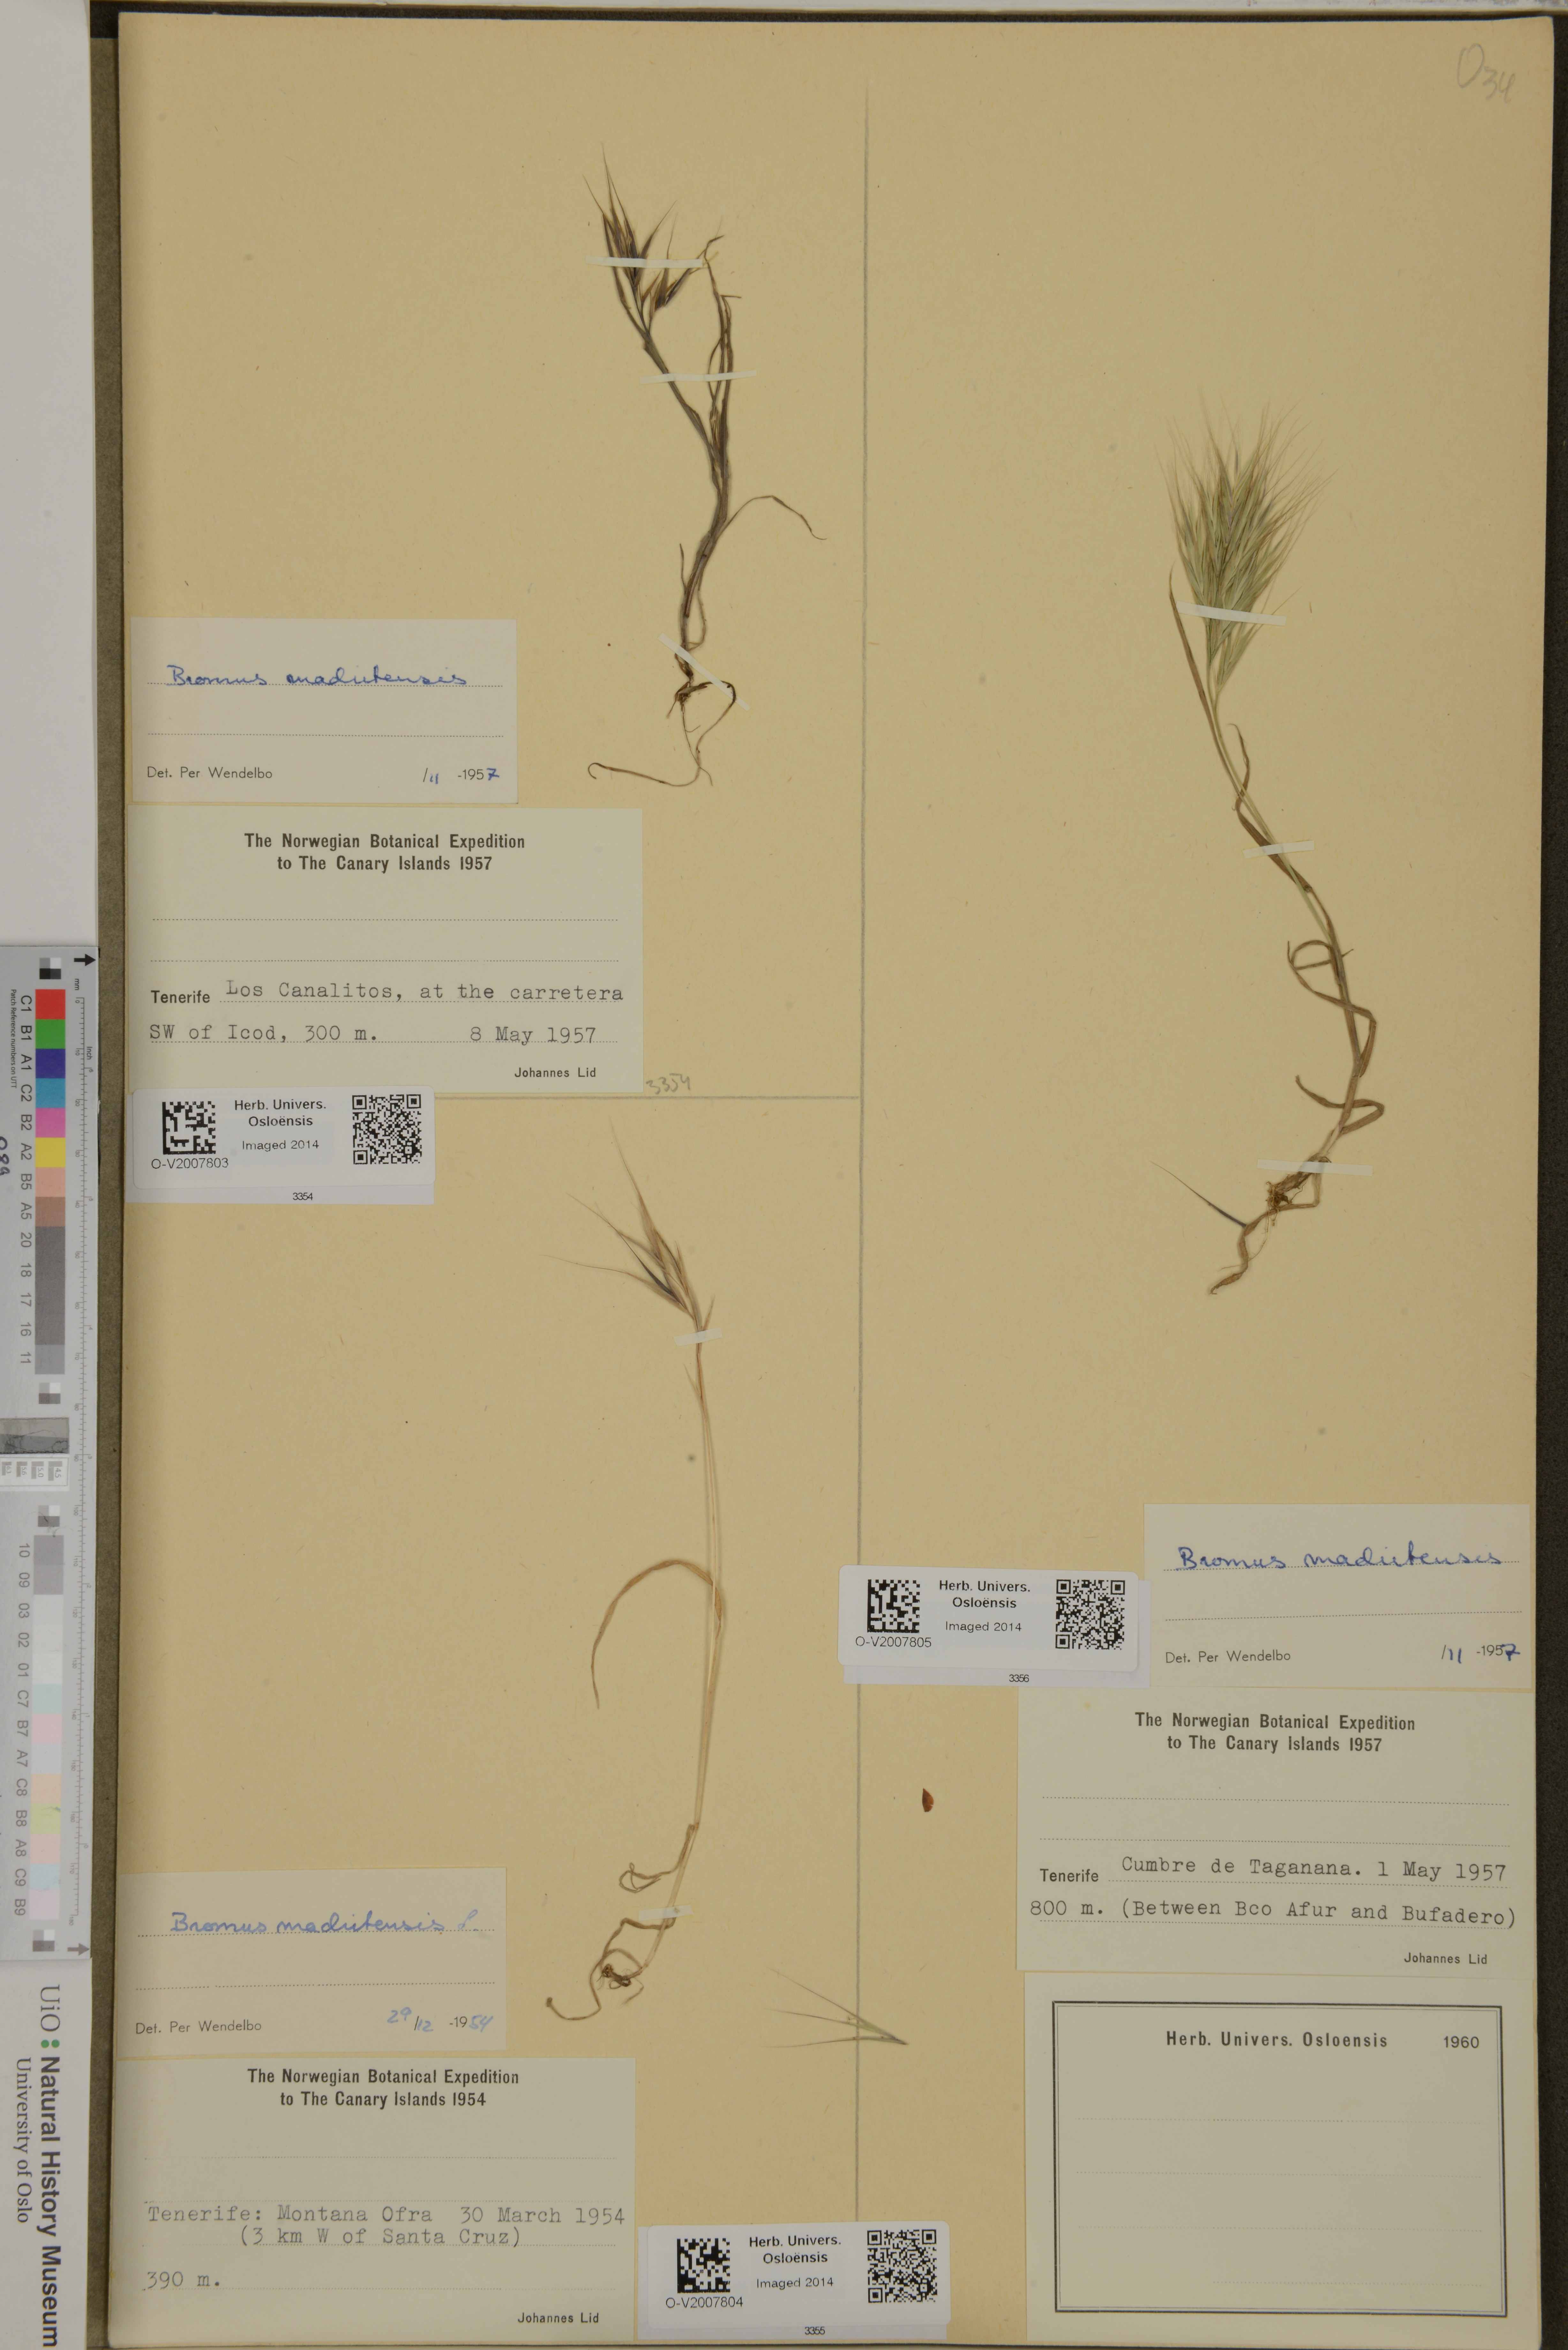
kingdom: Plantae
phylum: Tracheophyta
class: Liliopsida
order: Poales
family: Poaceae
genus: Bromus
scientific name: Bromus madritensis
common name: Compact brome
